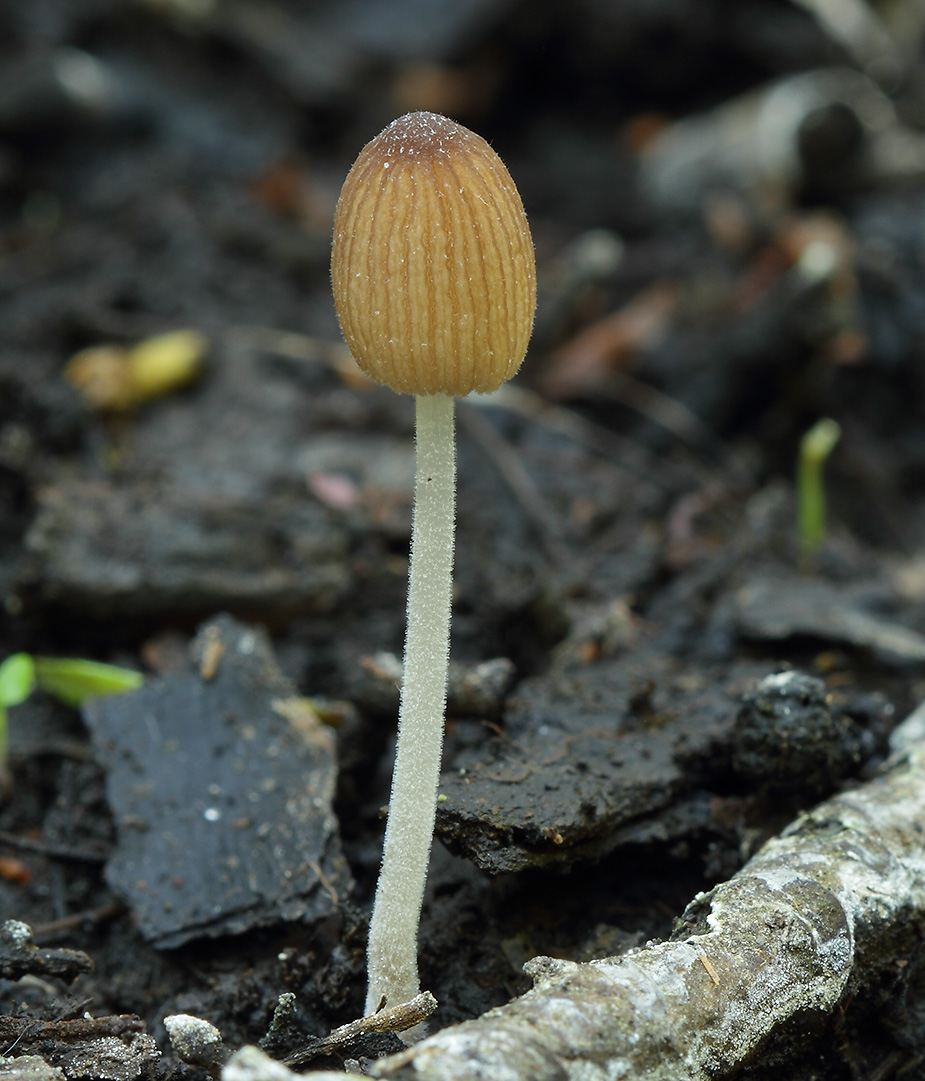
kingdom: Fungi
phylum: Basidiomycota
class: Agaricomycetes
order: Agaricales
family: Psathyrellaceae
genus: Tulosesus
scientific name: Tulosesus hiascens
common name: udspilet blækhat
